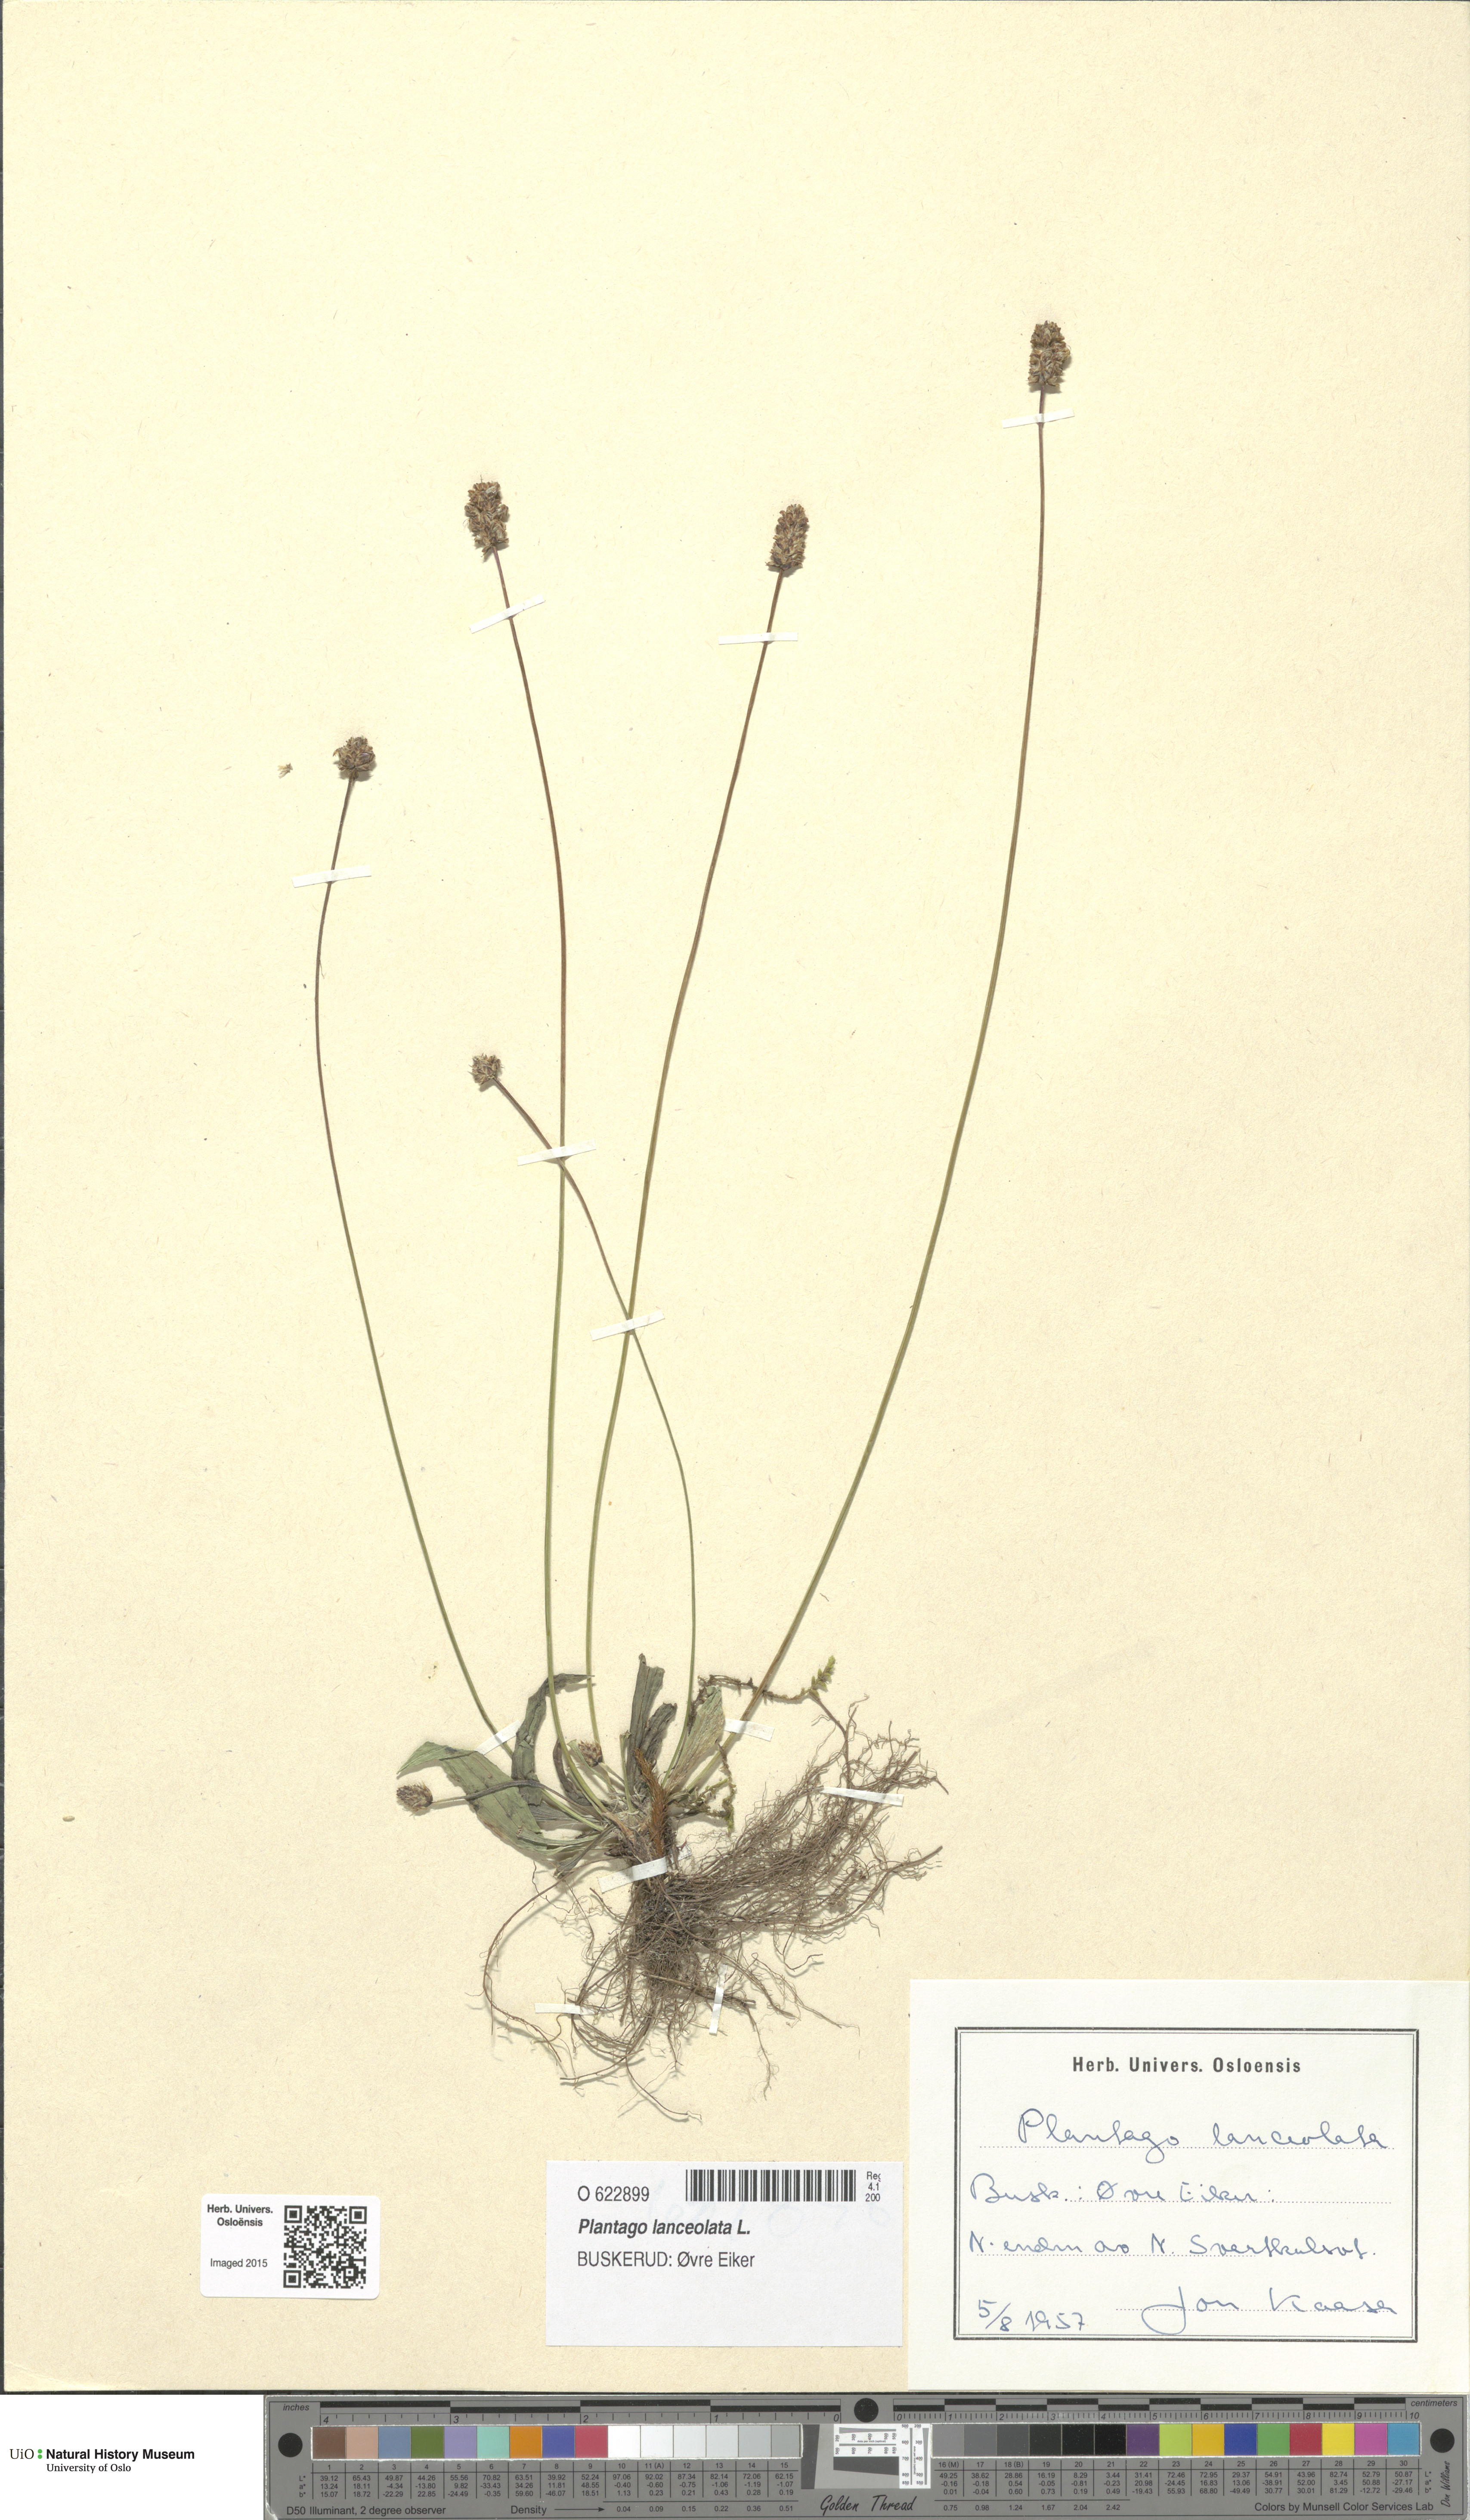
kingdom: Plantae
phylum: Tracheophyta
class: Magnoliopsida
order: Lamiales
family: Plantaginaceae
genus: Plantago
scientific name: Plantago lanceolata
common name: Ribwort plantain
